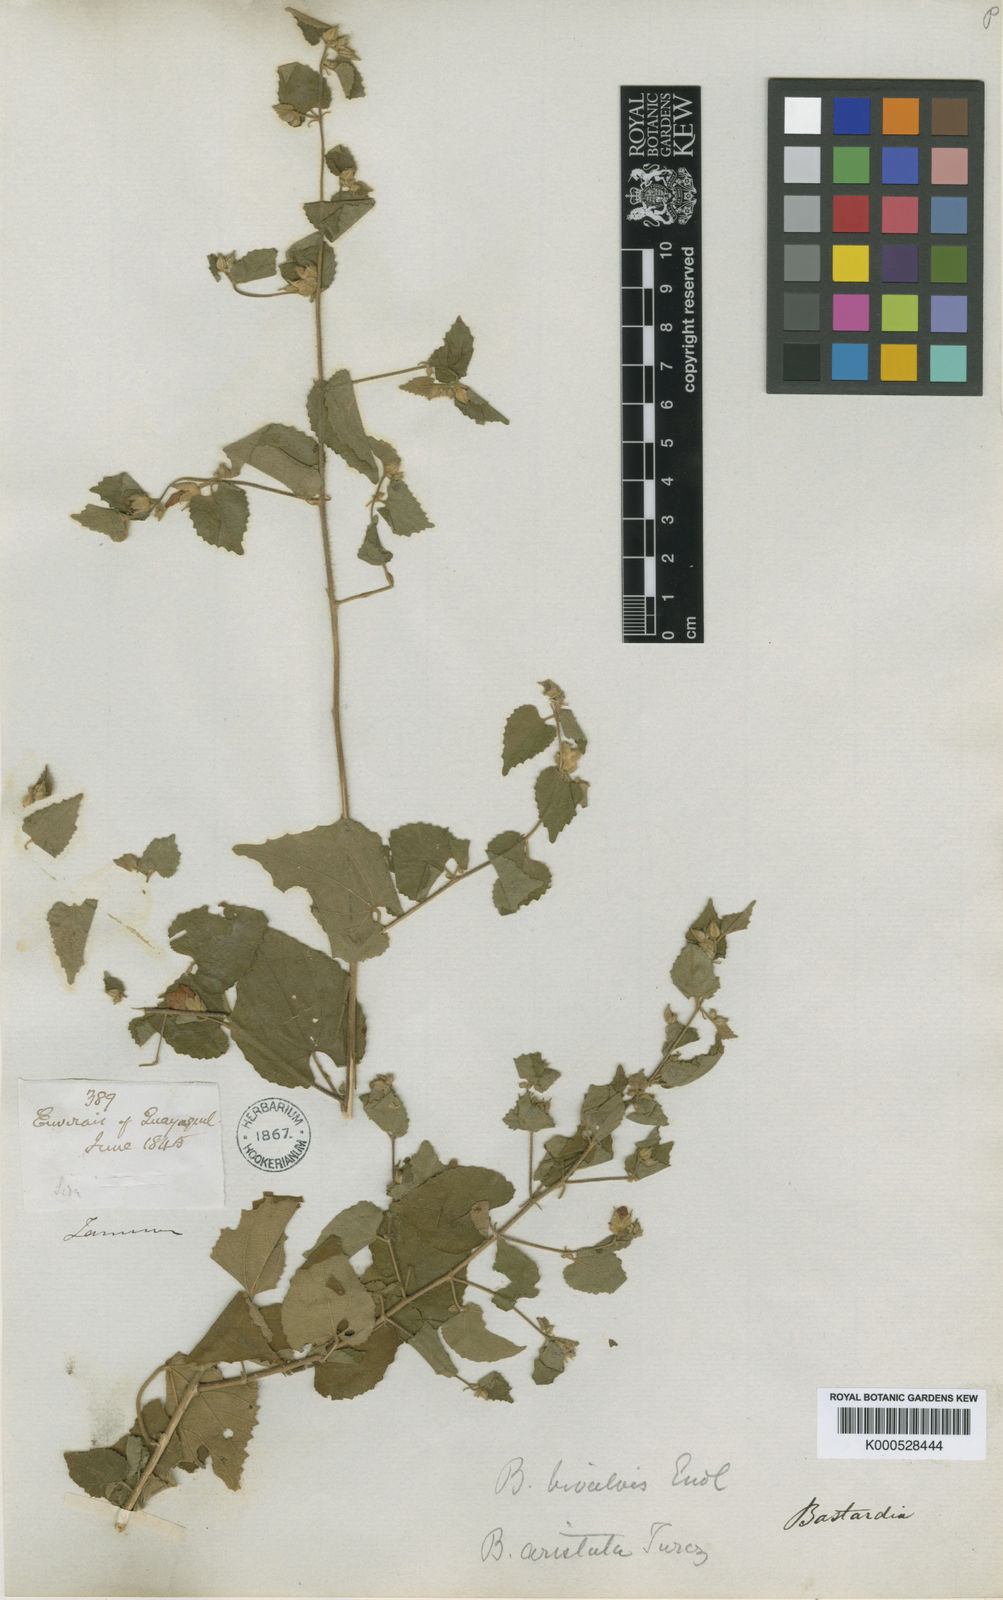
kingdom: Plantae
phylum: Tracheophyta
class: Magnoliopsida
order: Malvales
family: Malvaceae
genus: Abutilon
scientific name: Abutilon bivalve
